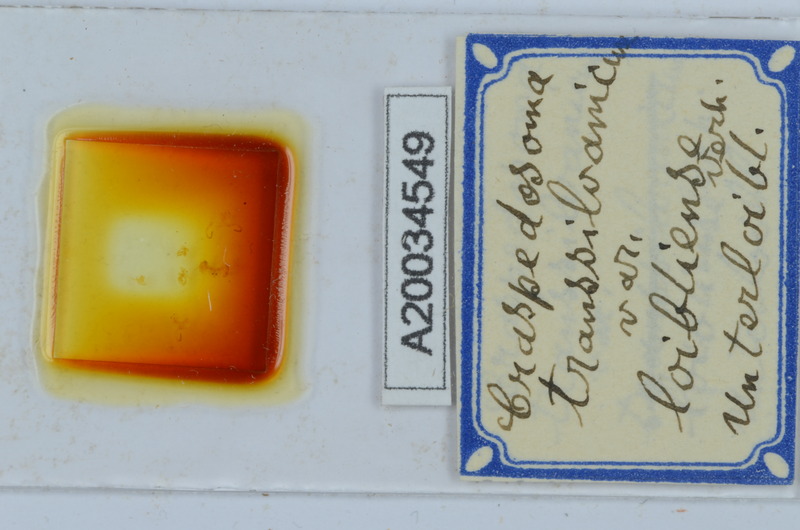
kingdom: Animalia
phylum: Arthropoda
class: Diplopoda
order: Chordeumatida
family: Craspedosomatidae
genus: Craspedosoma
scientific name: Craspedosoma transsilvanicum
